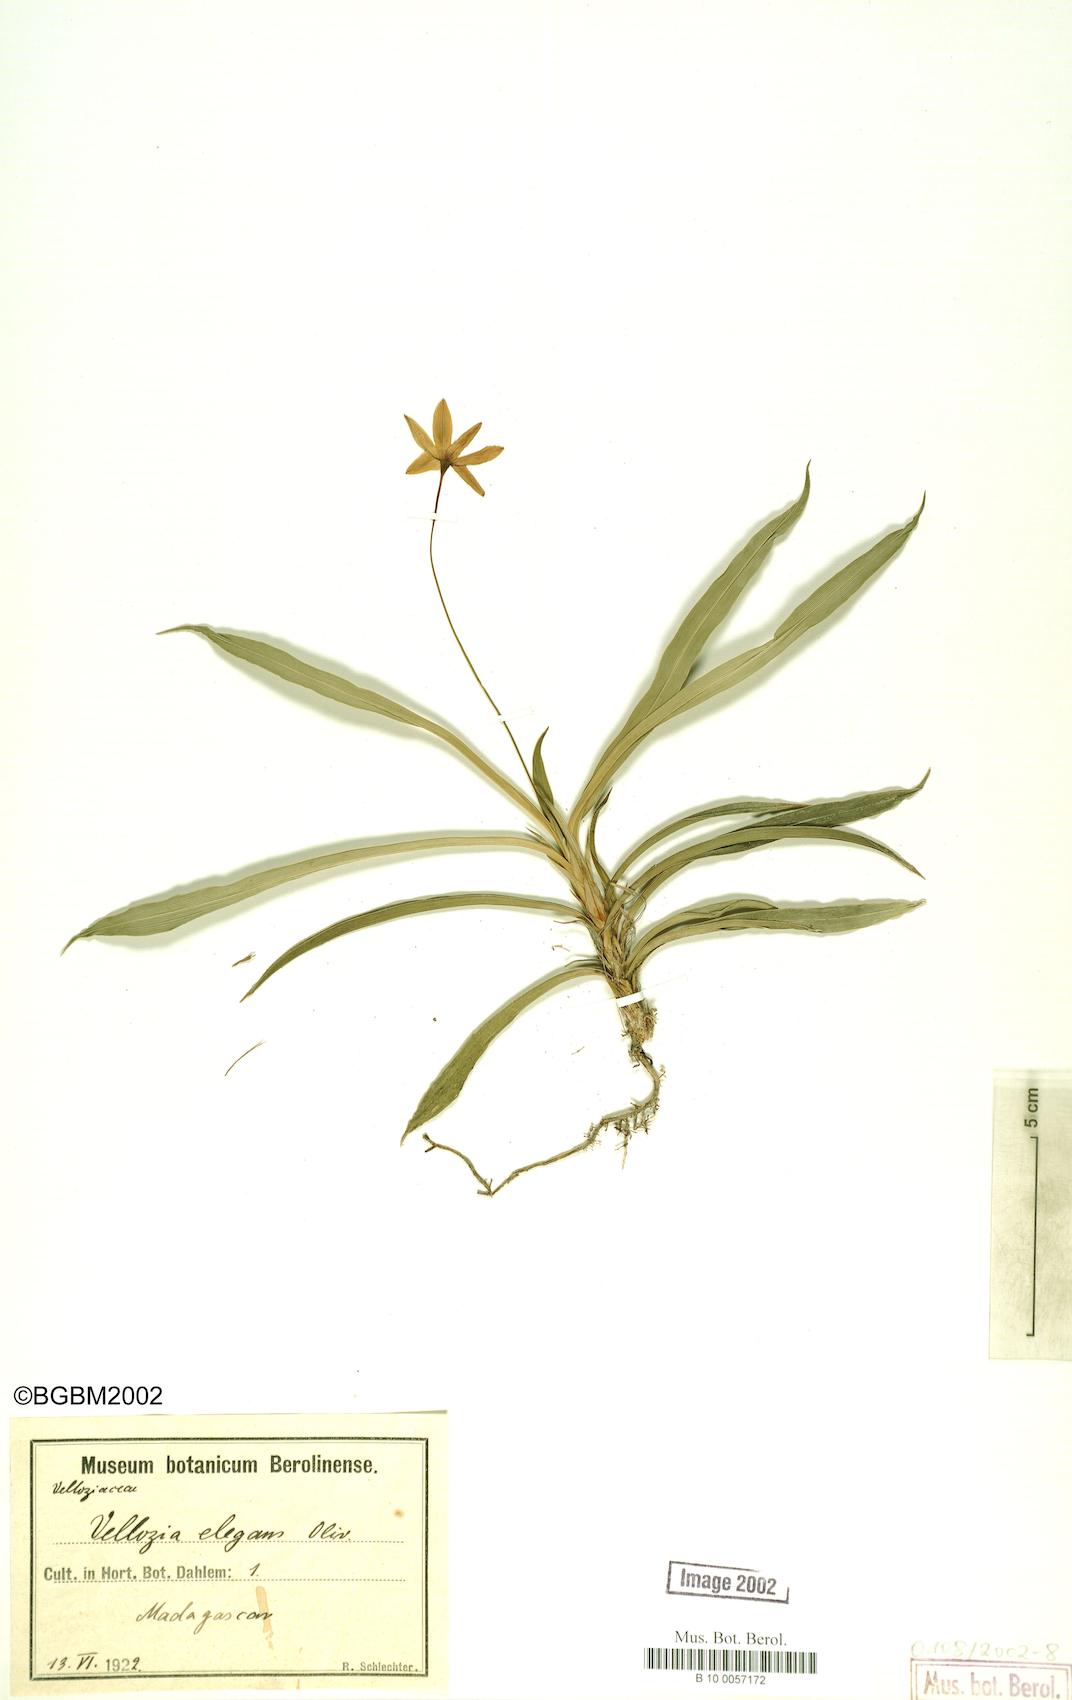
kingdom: Plantae
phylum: Tracheophyta
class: Liliopsida
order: Pandanales
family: Velloziaceae
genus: Xerophyta
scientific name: Xerophyta elegans
